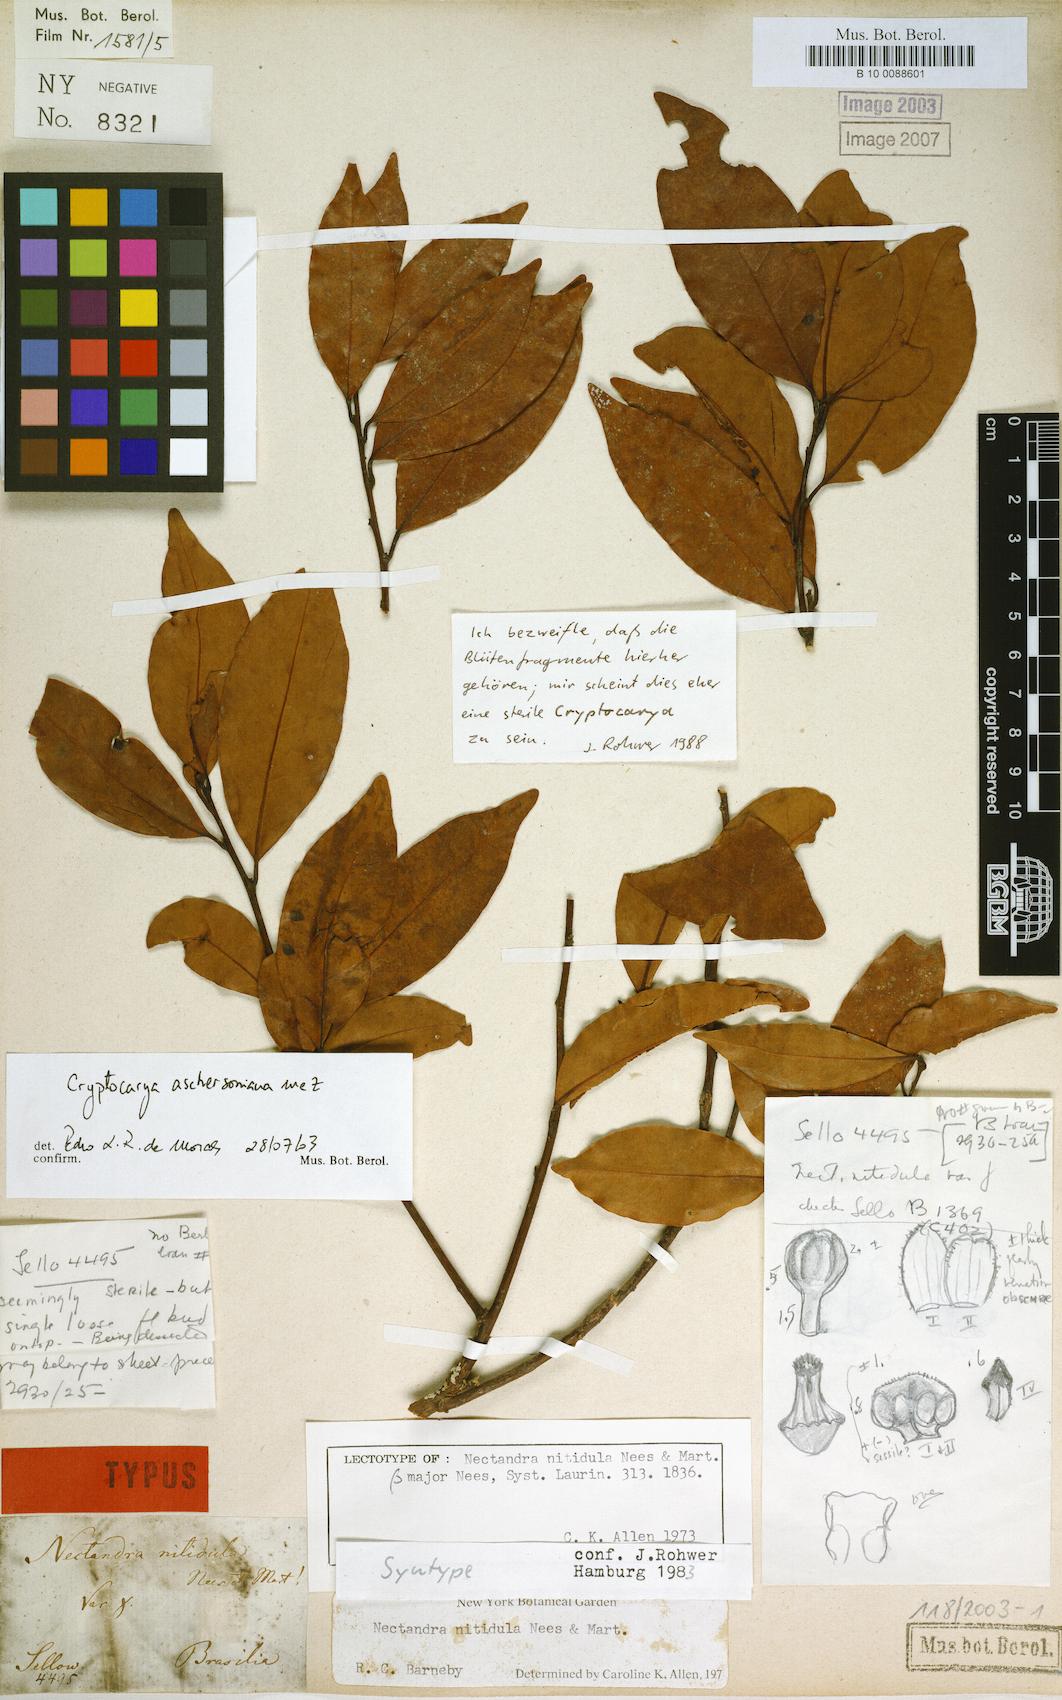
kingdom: Plantae
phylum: Tracheophyta
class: Magnoliopsida
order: Laurales
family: Lauraceae
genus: Nectandra
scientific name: Nectandra nitidula
